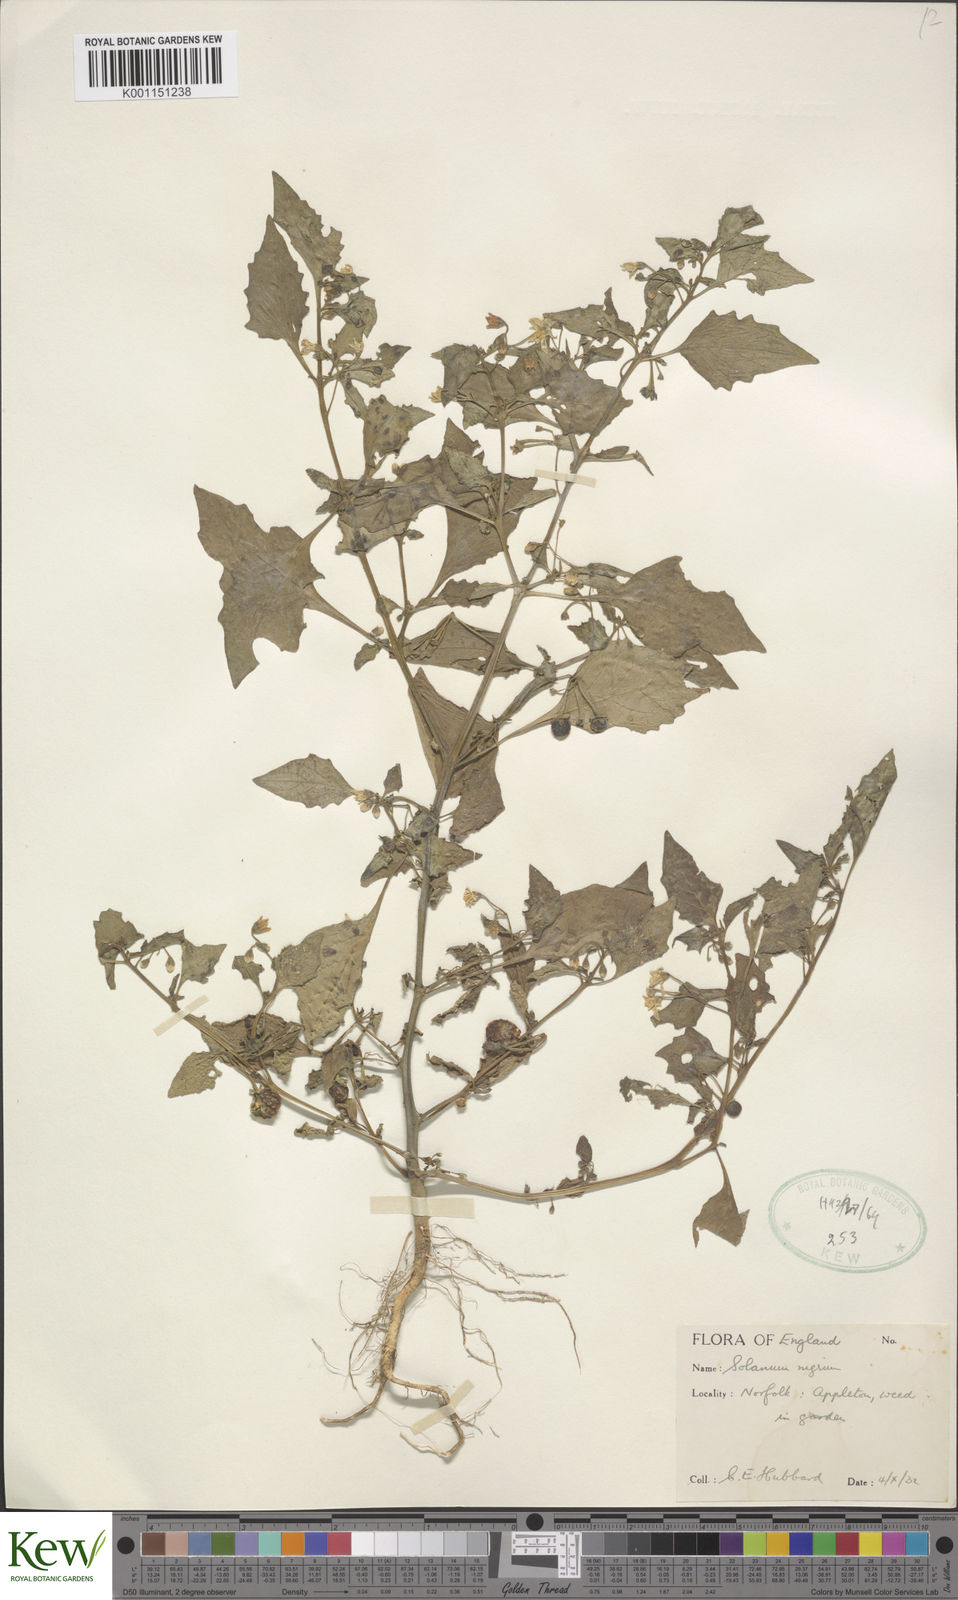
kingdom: Plantae
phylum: Tracheophyta
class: Magnoliopsida
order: Solanales
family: Solanaceae
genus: Solanum
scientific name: Solanum nigrum
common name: Black nightshade
